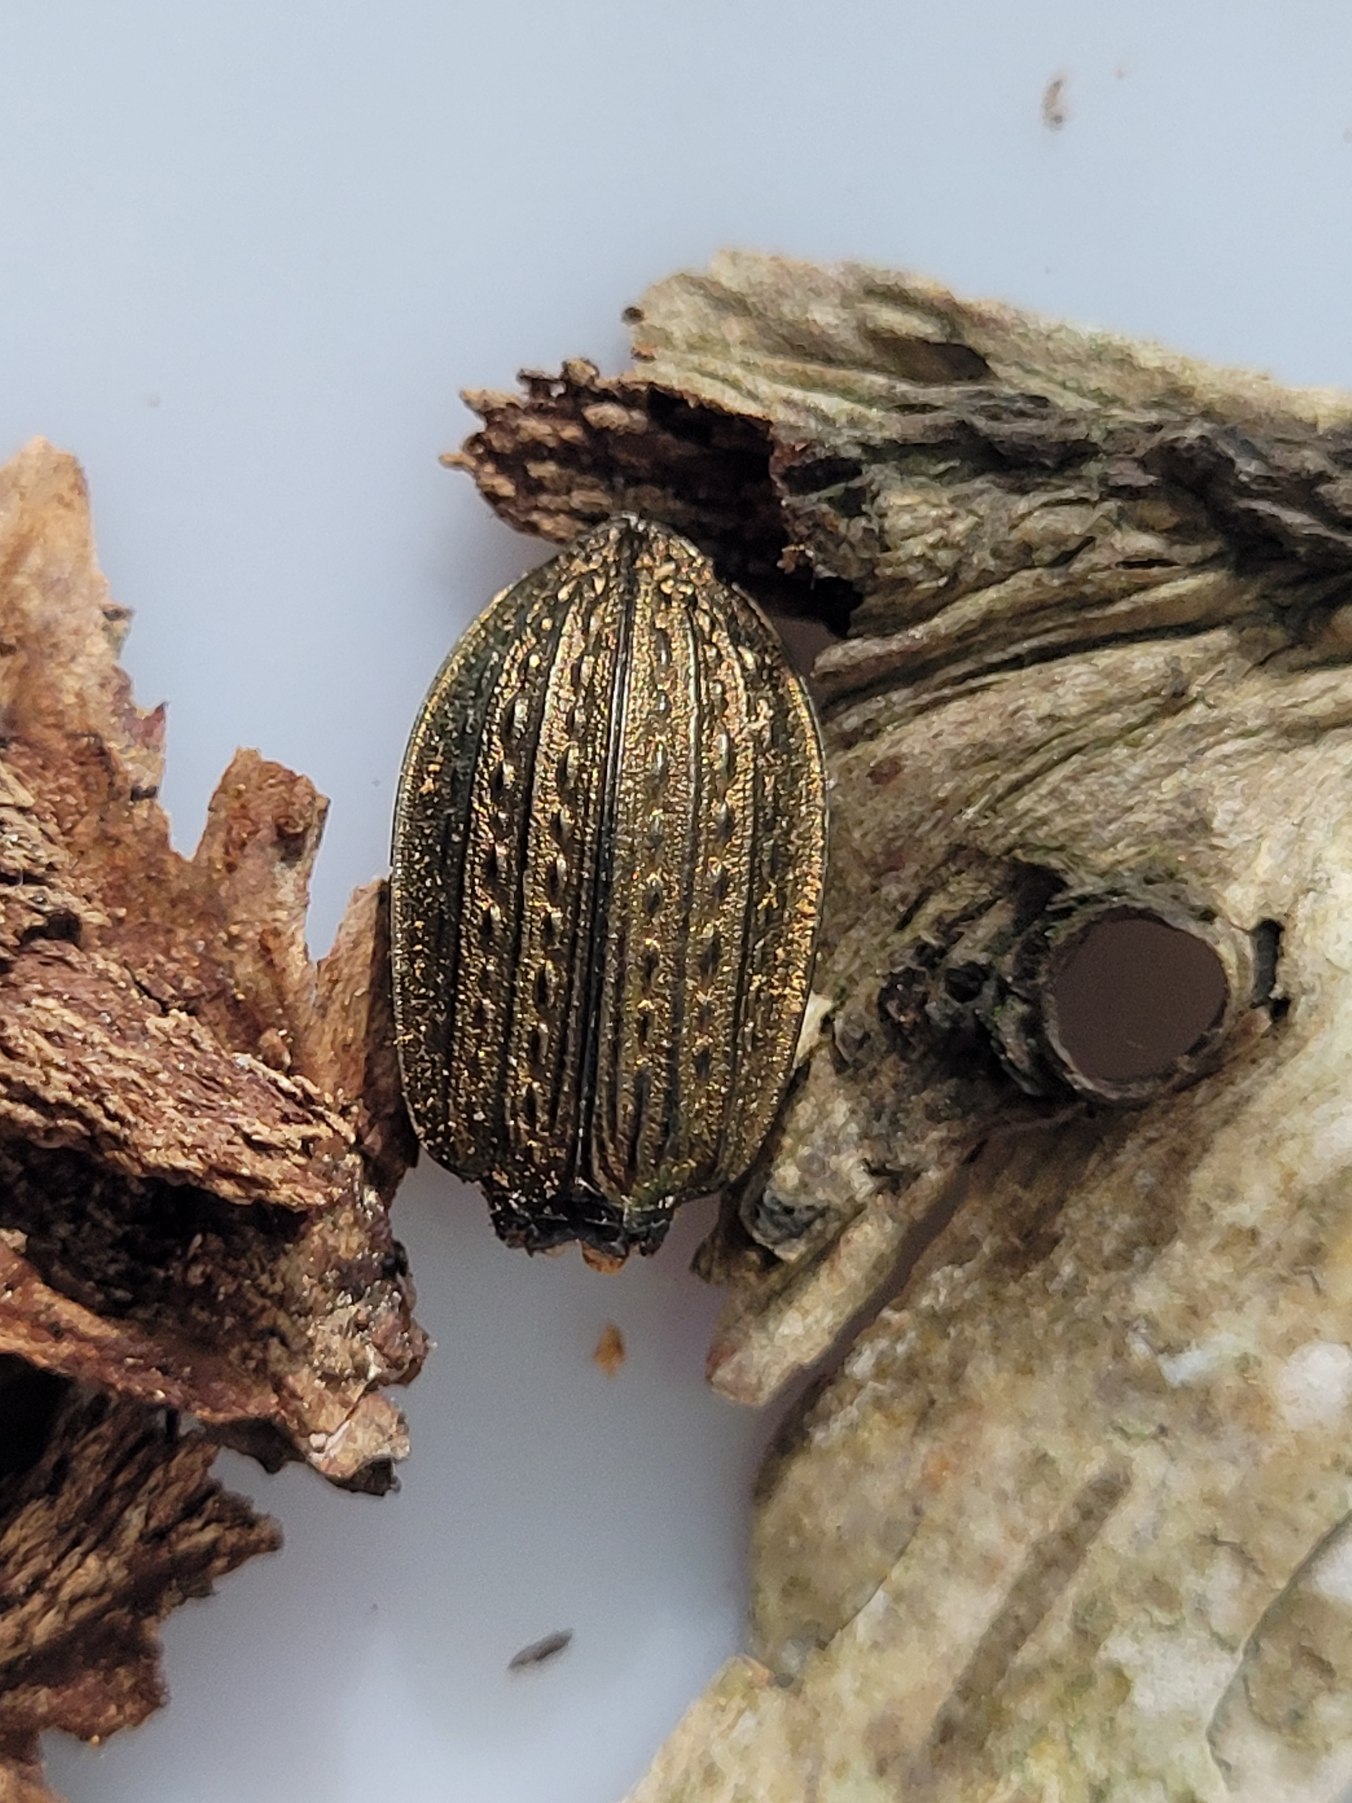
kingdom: Animalia
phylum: Arthropoda
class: Insecta
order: Coleoptera
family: Carabidae
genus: Carabus
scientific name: Carabus granulatus
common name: Kornet løber
